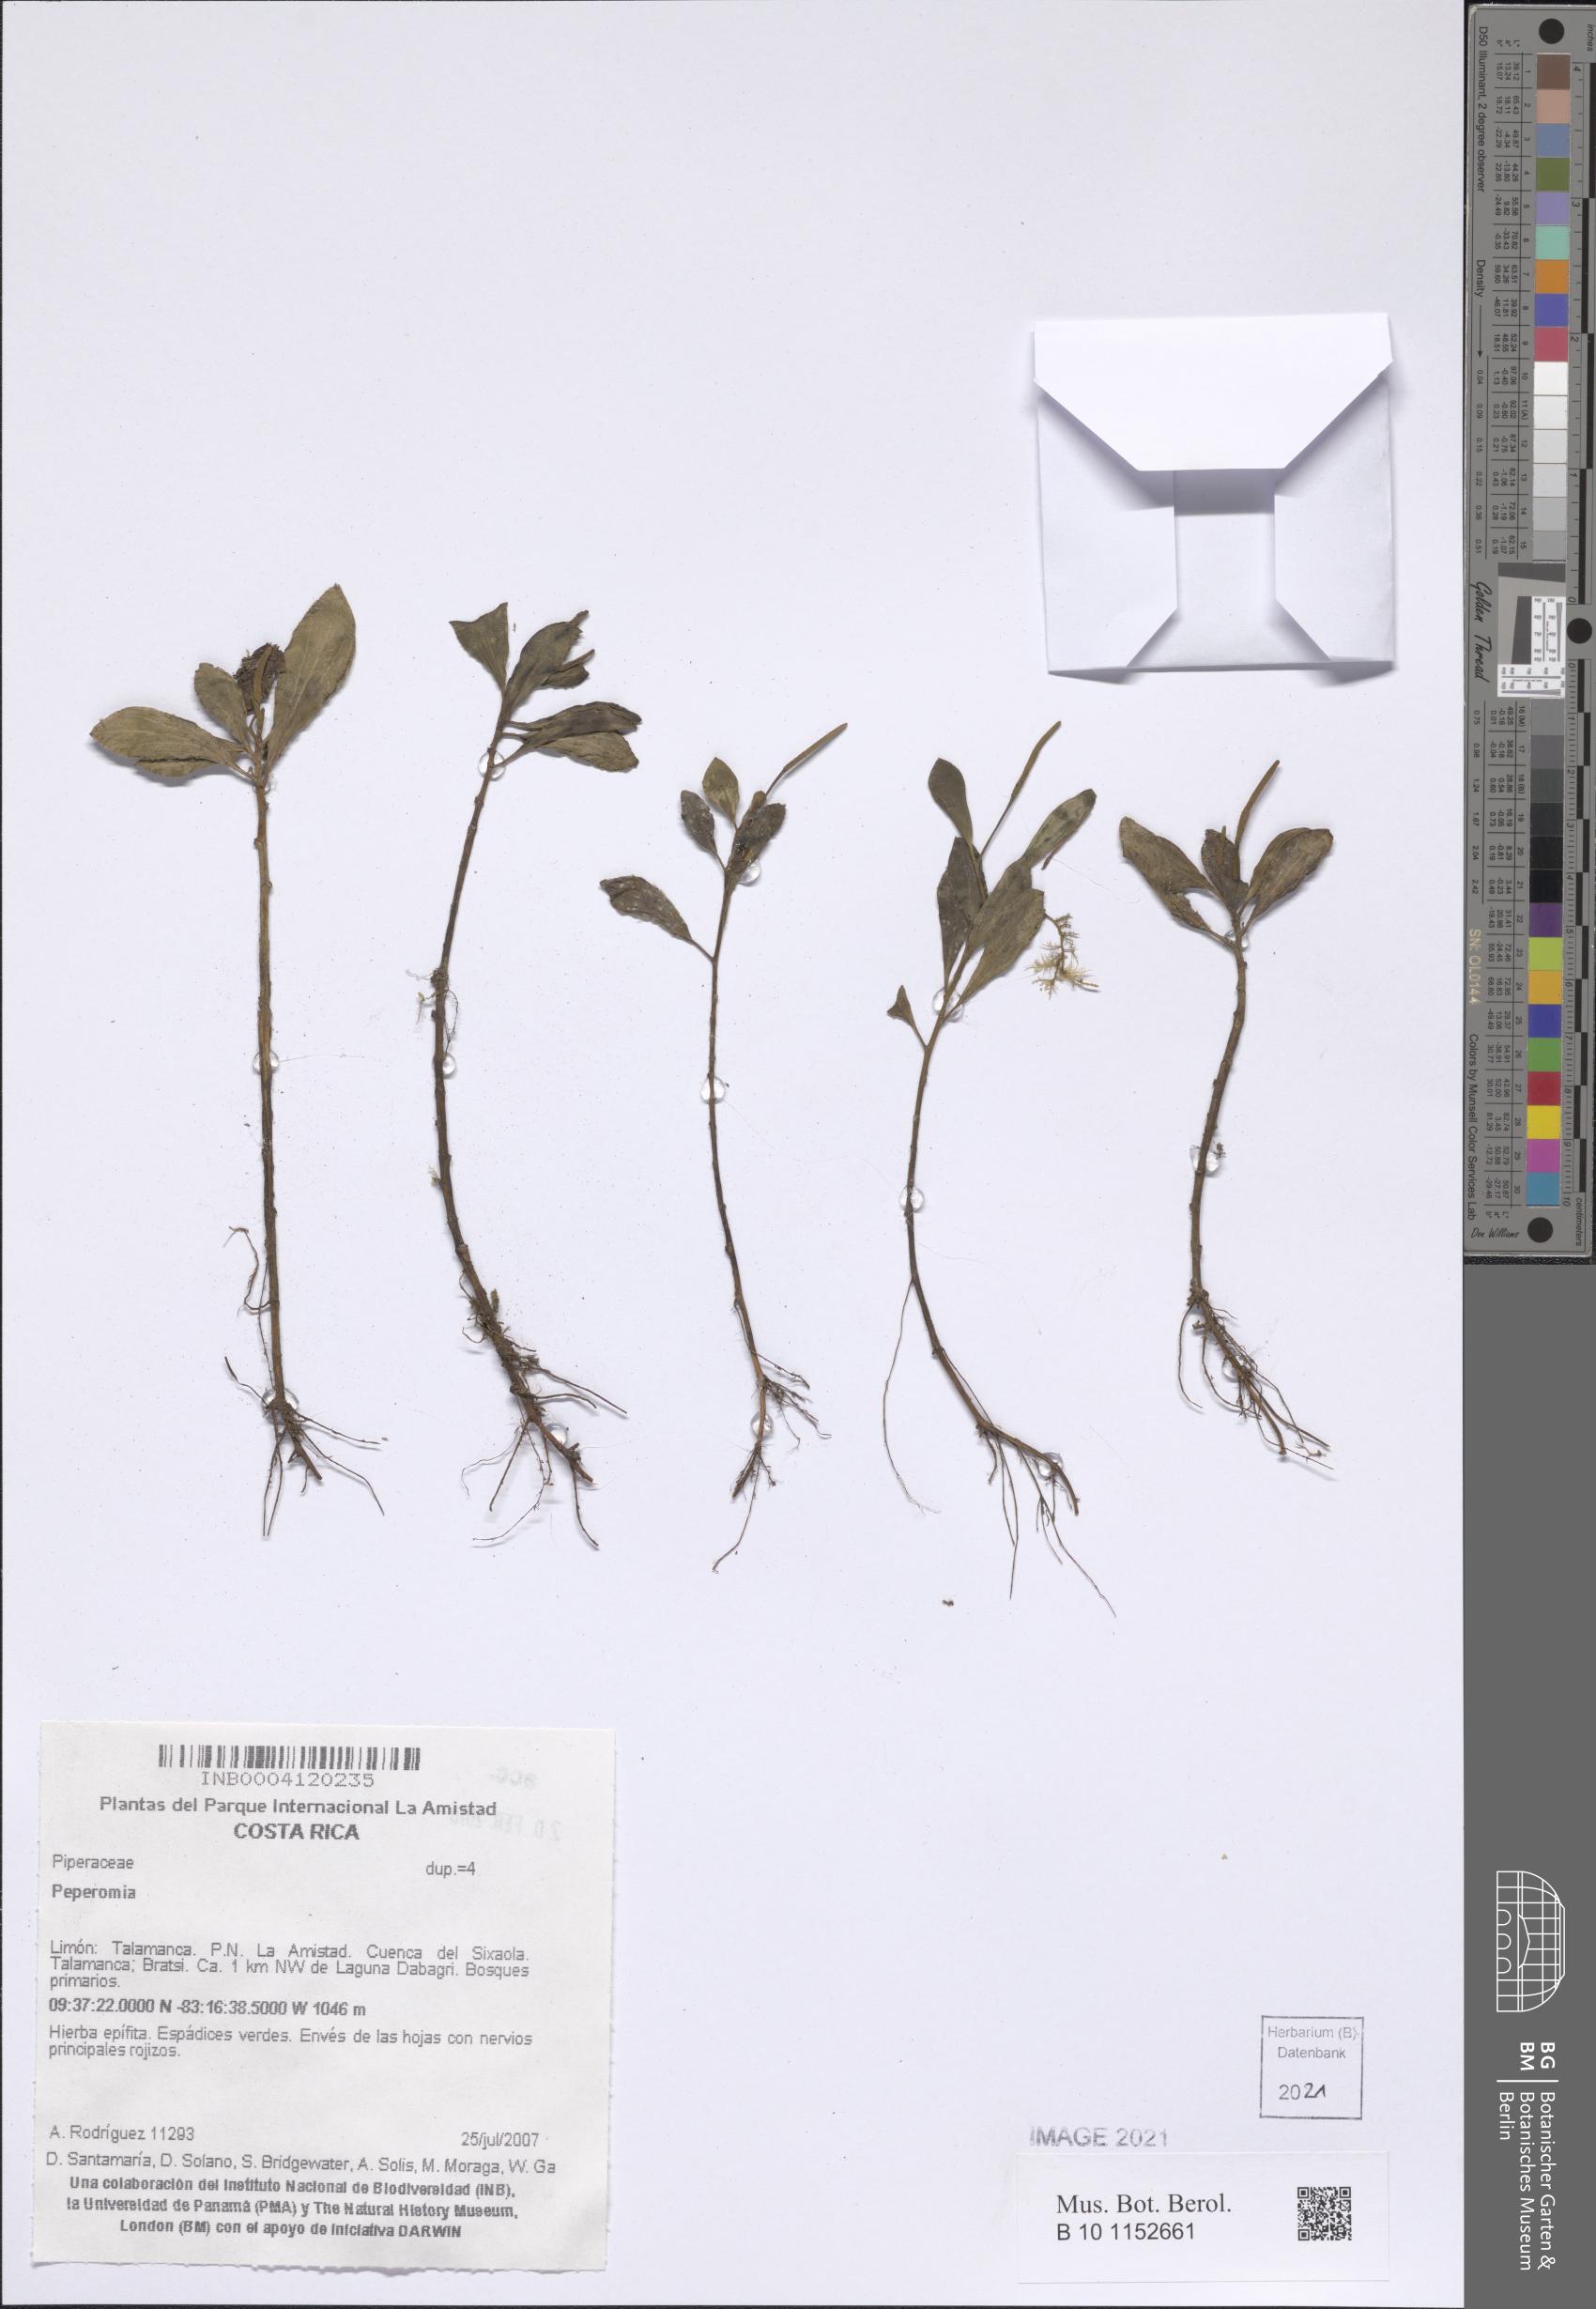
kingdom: Plantae
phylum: Tracheophyta
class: Magnoliopsida
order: Piperales
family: Piperaceae
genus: Peperomia
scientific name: Peperomia
